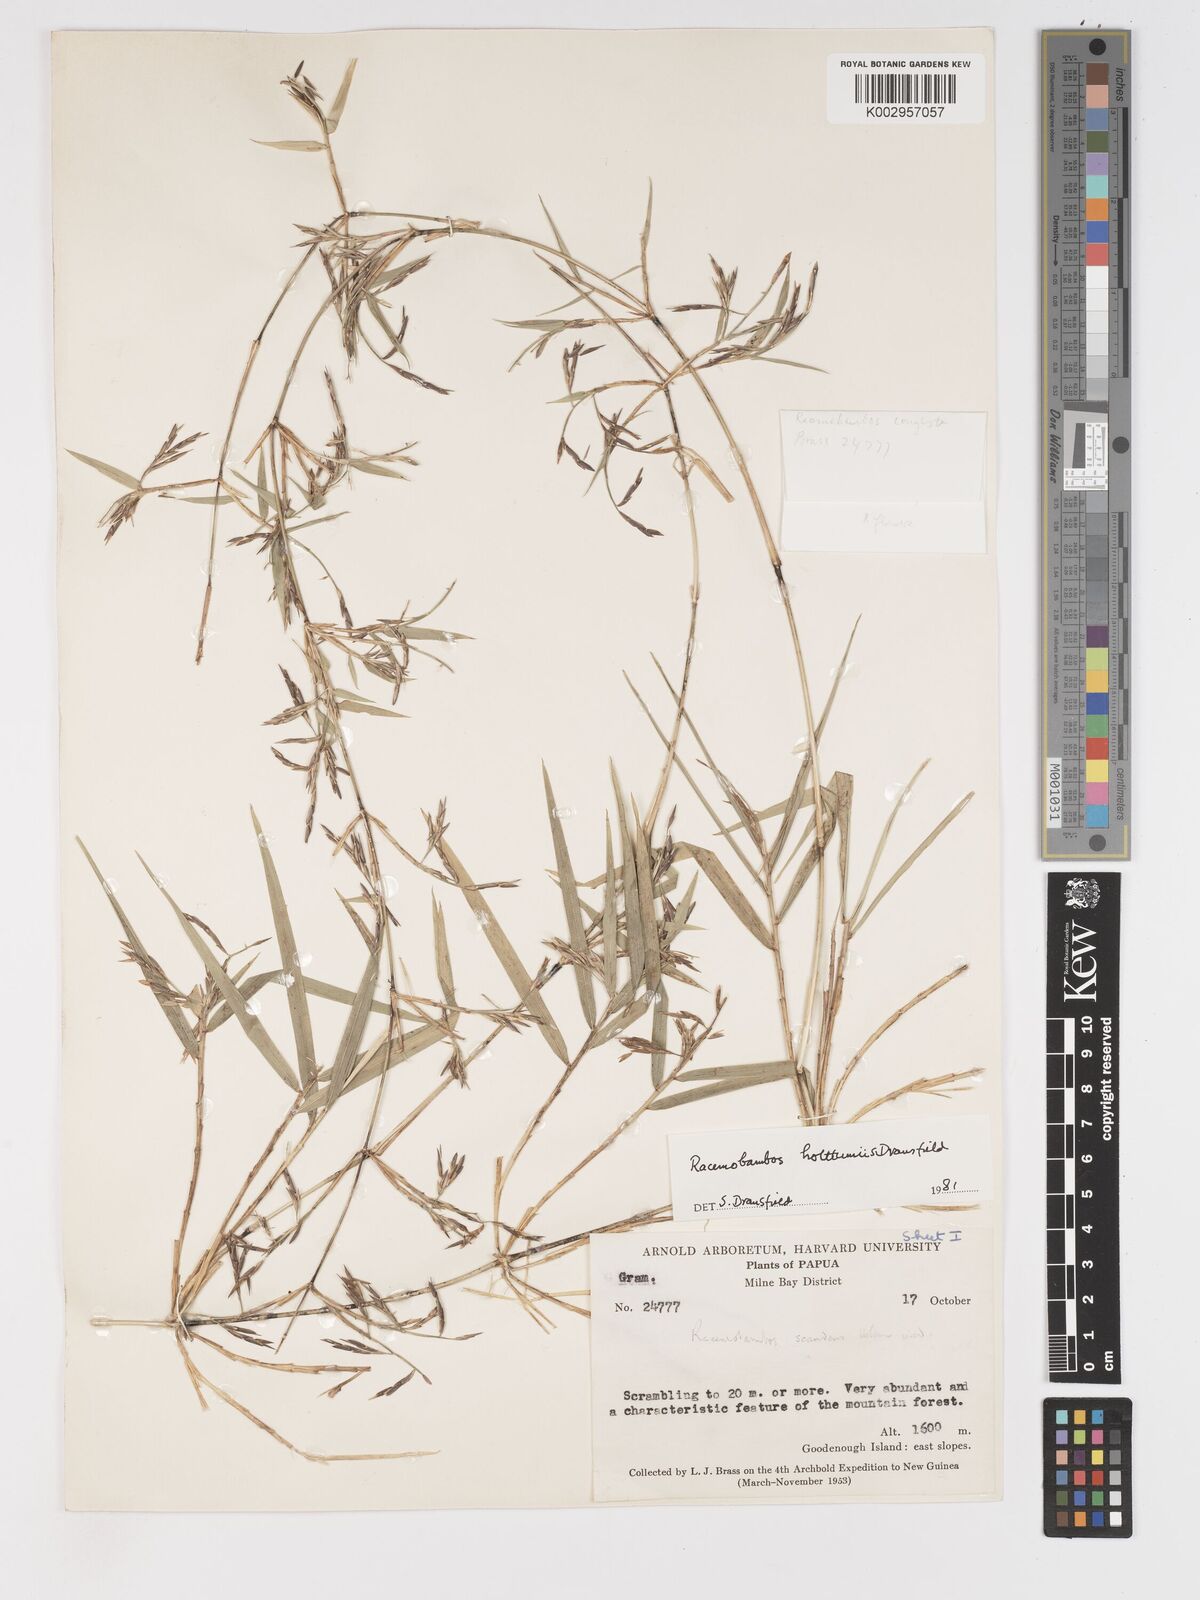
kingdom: Plantae
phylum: Tracheophyta
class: Liliopsida
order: Poales
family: Poaceae
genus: Racemobambos
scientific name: Racemobambos
